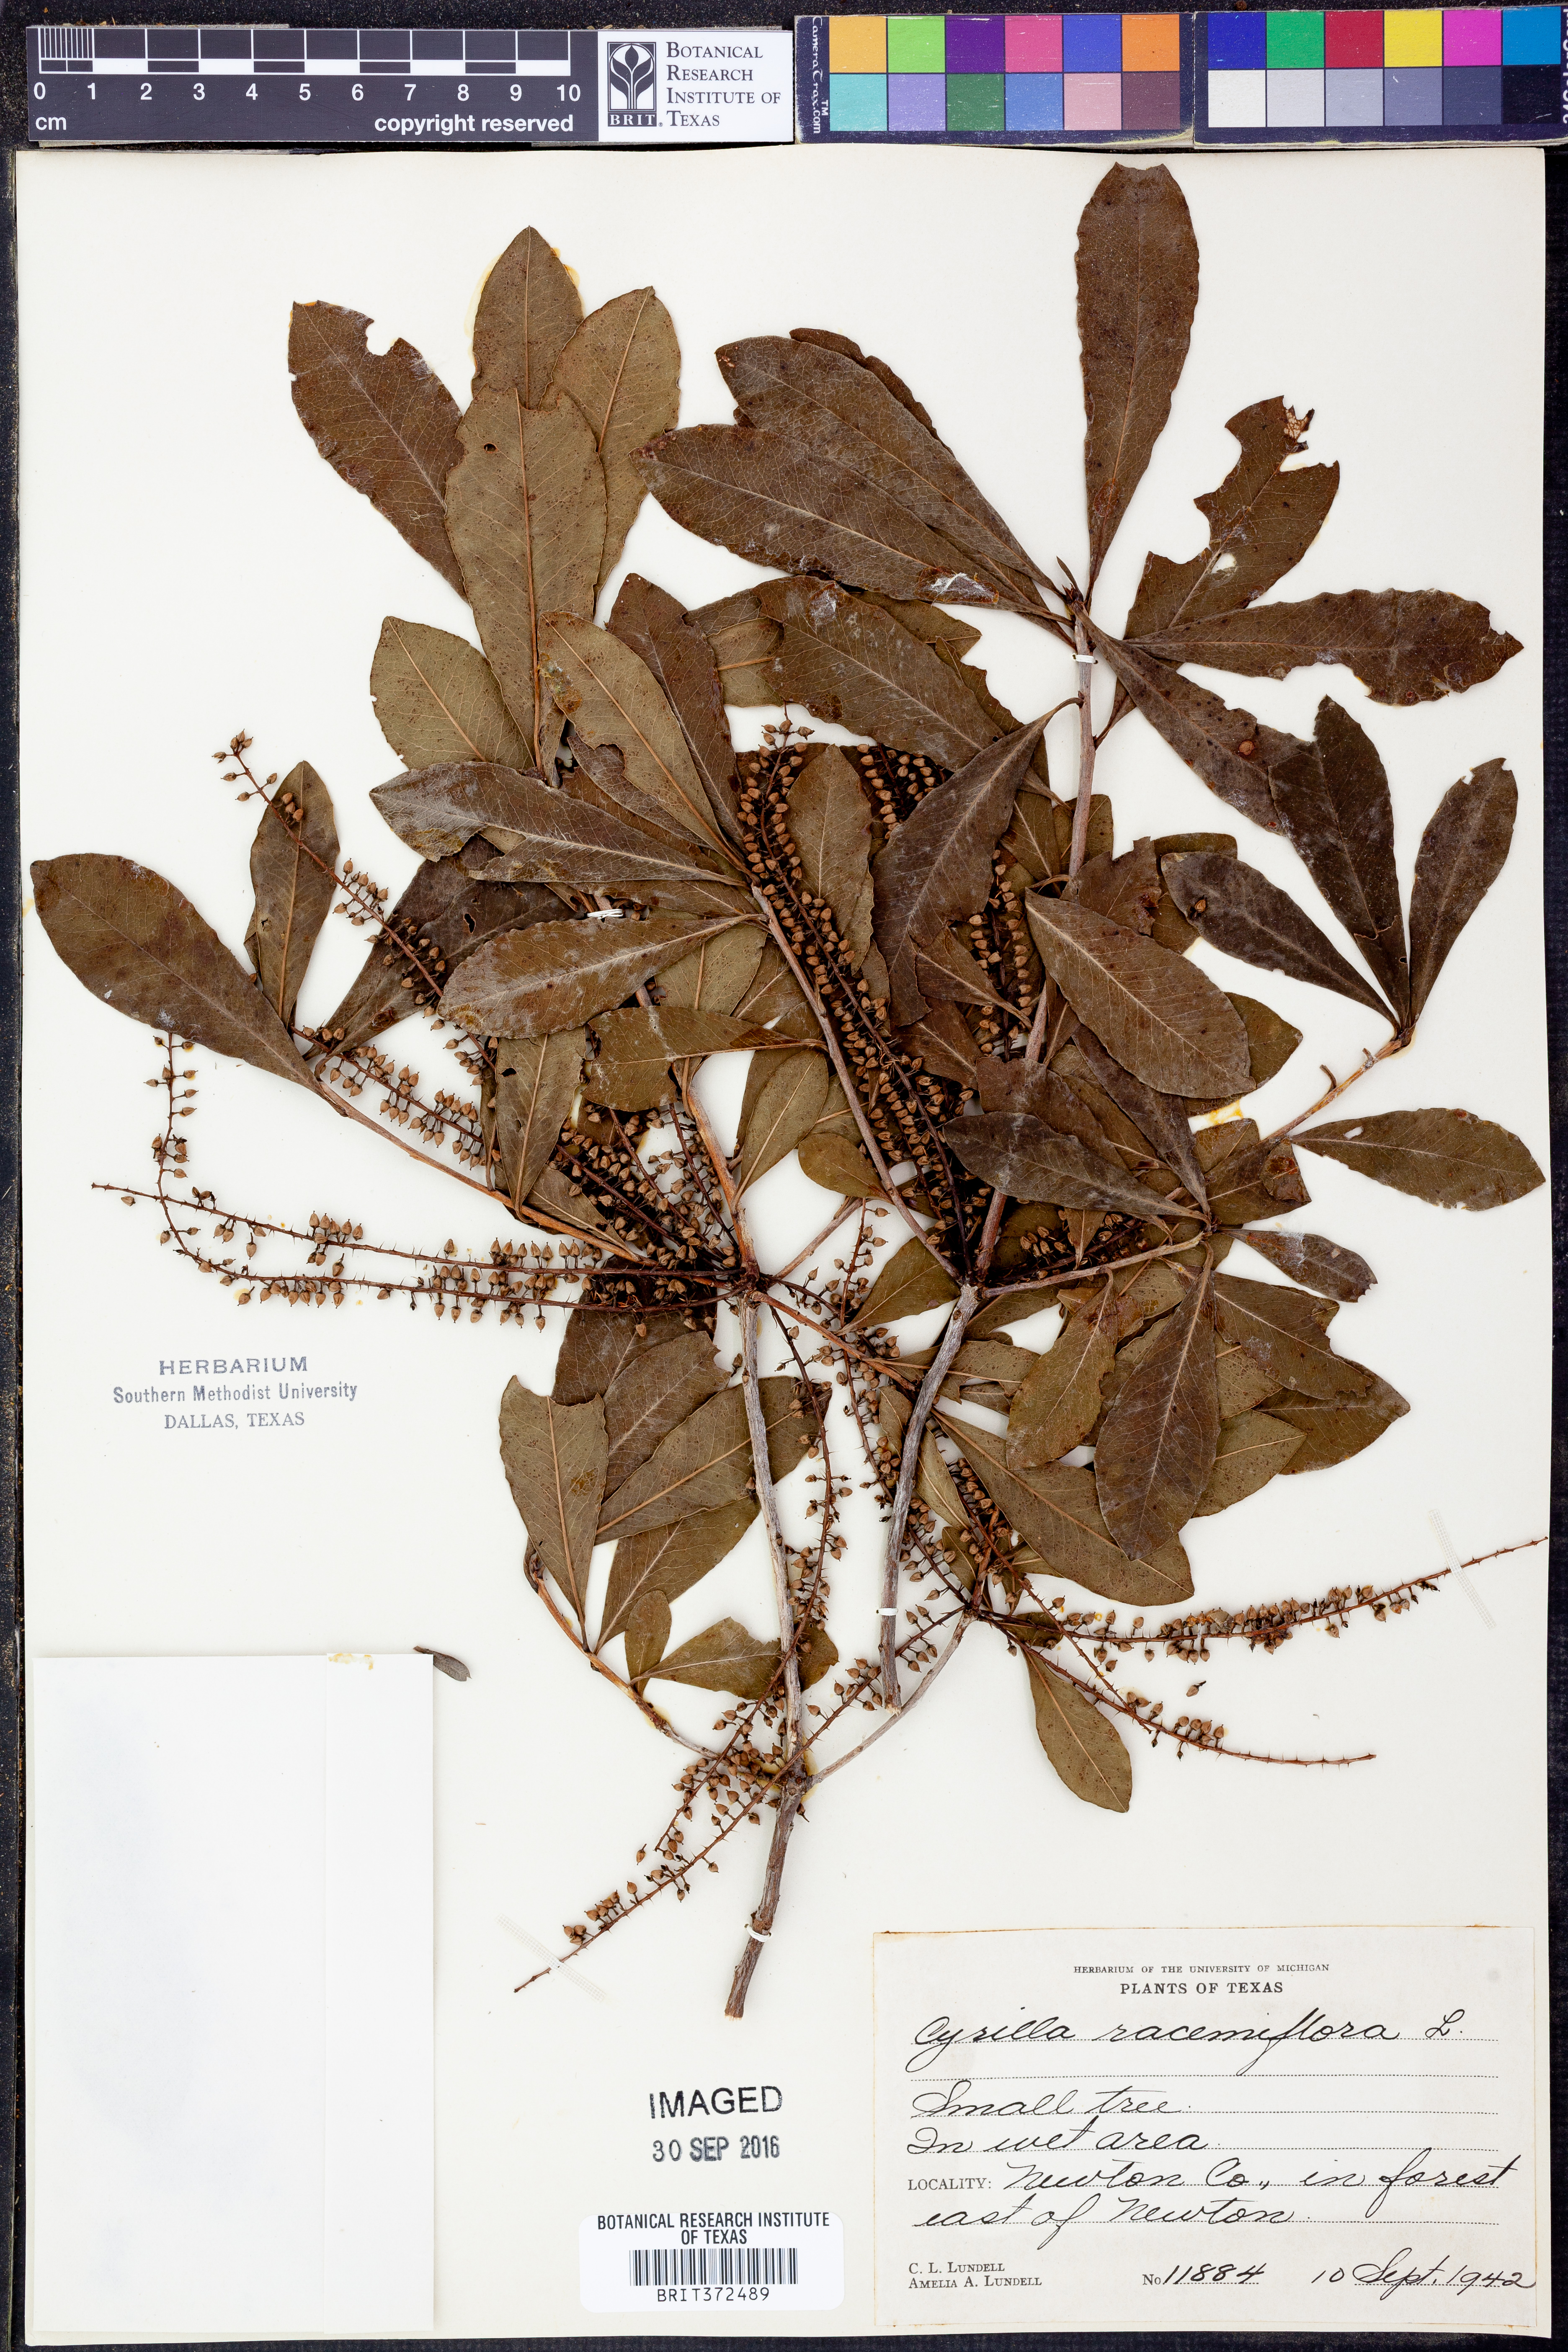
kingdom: Plantae
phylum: Tracheophyta
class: Magnoliopsida
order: Ericales
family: Cyrillaceae
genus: Cyrilla
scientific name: Cyrilla racemiflora
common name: Black titi
